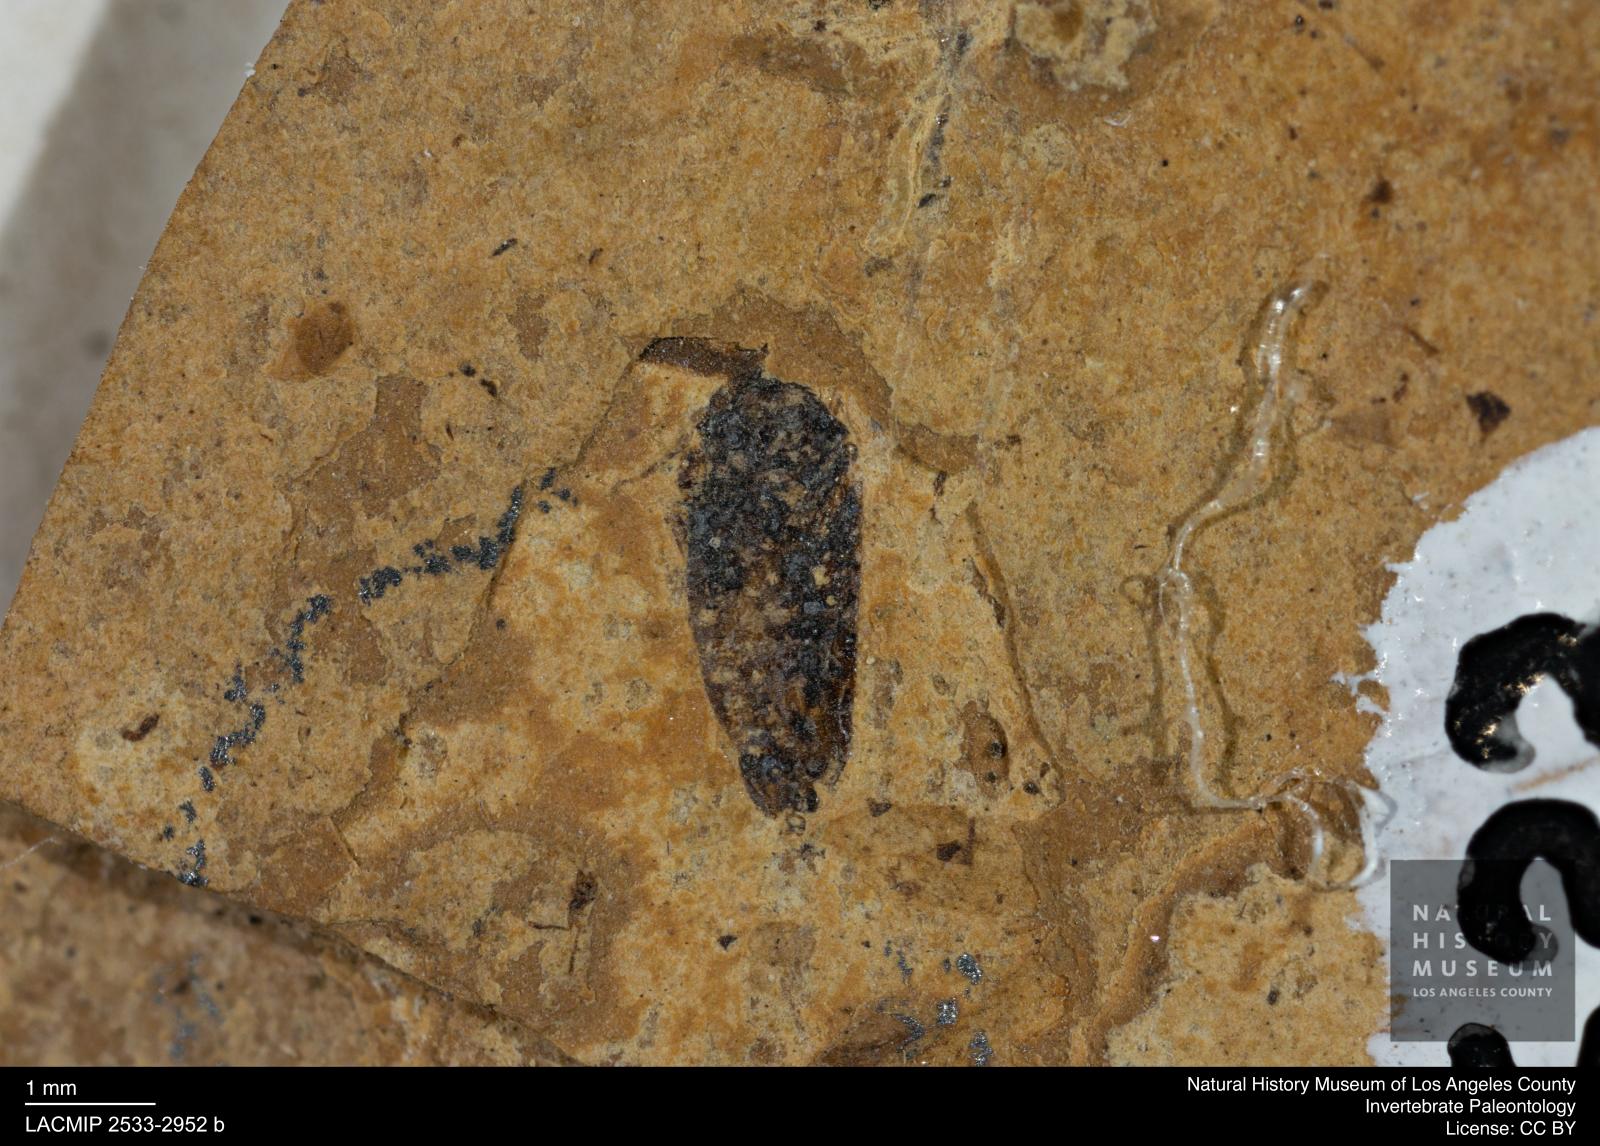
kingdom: Animalia
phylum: Arthropoda
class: Insecta
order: Hemiptera
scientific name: Hemiptera
